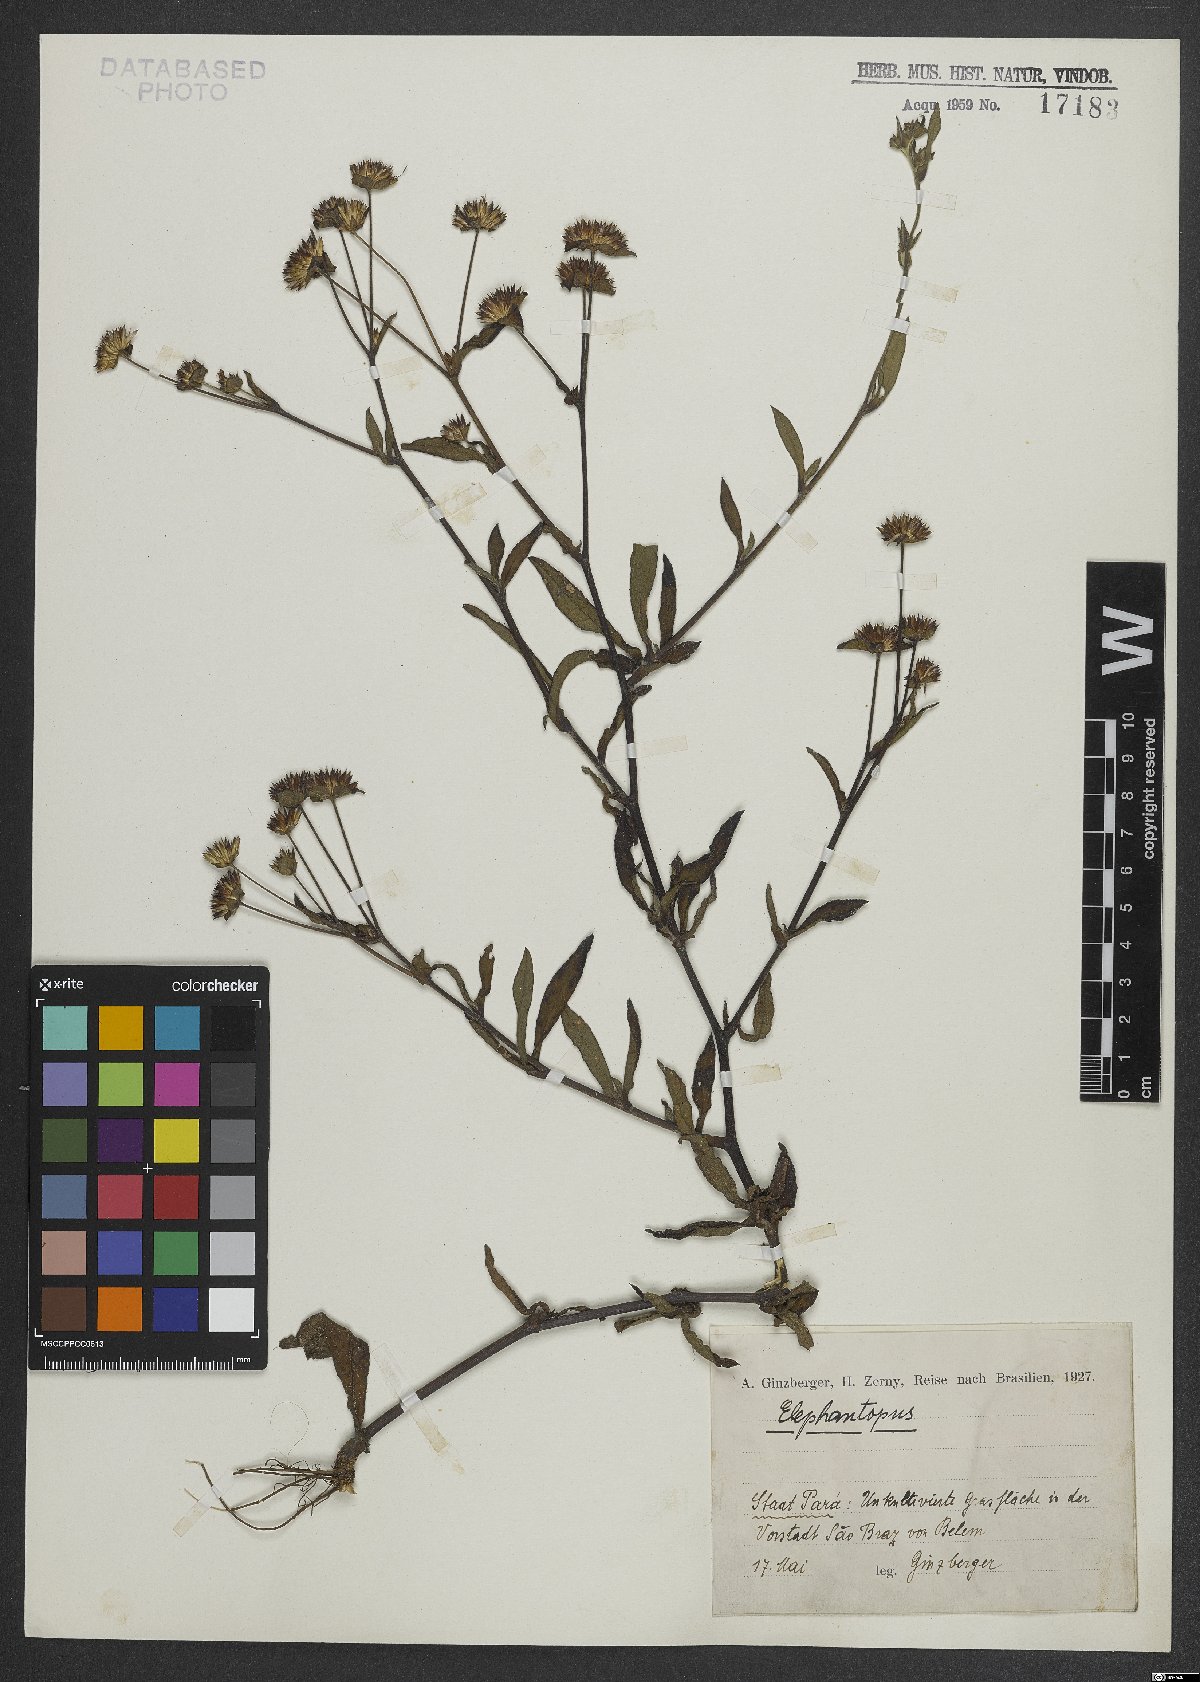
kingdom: Plantae
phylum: Tracheophyta
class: Magnoliopsida
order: Asterales
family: Asteraceae
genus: Elephantopus
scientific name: Elephantopus
